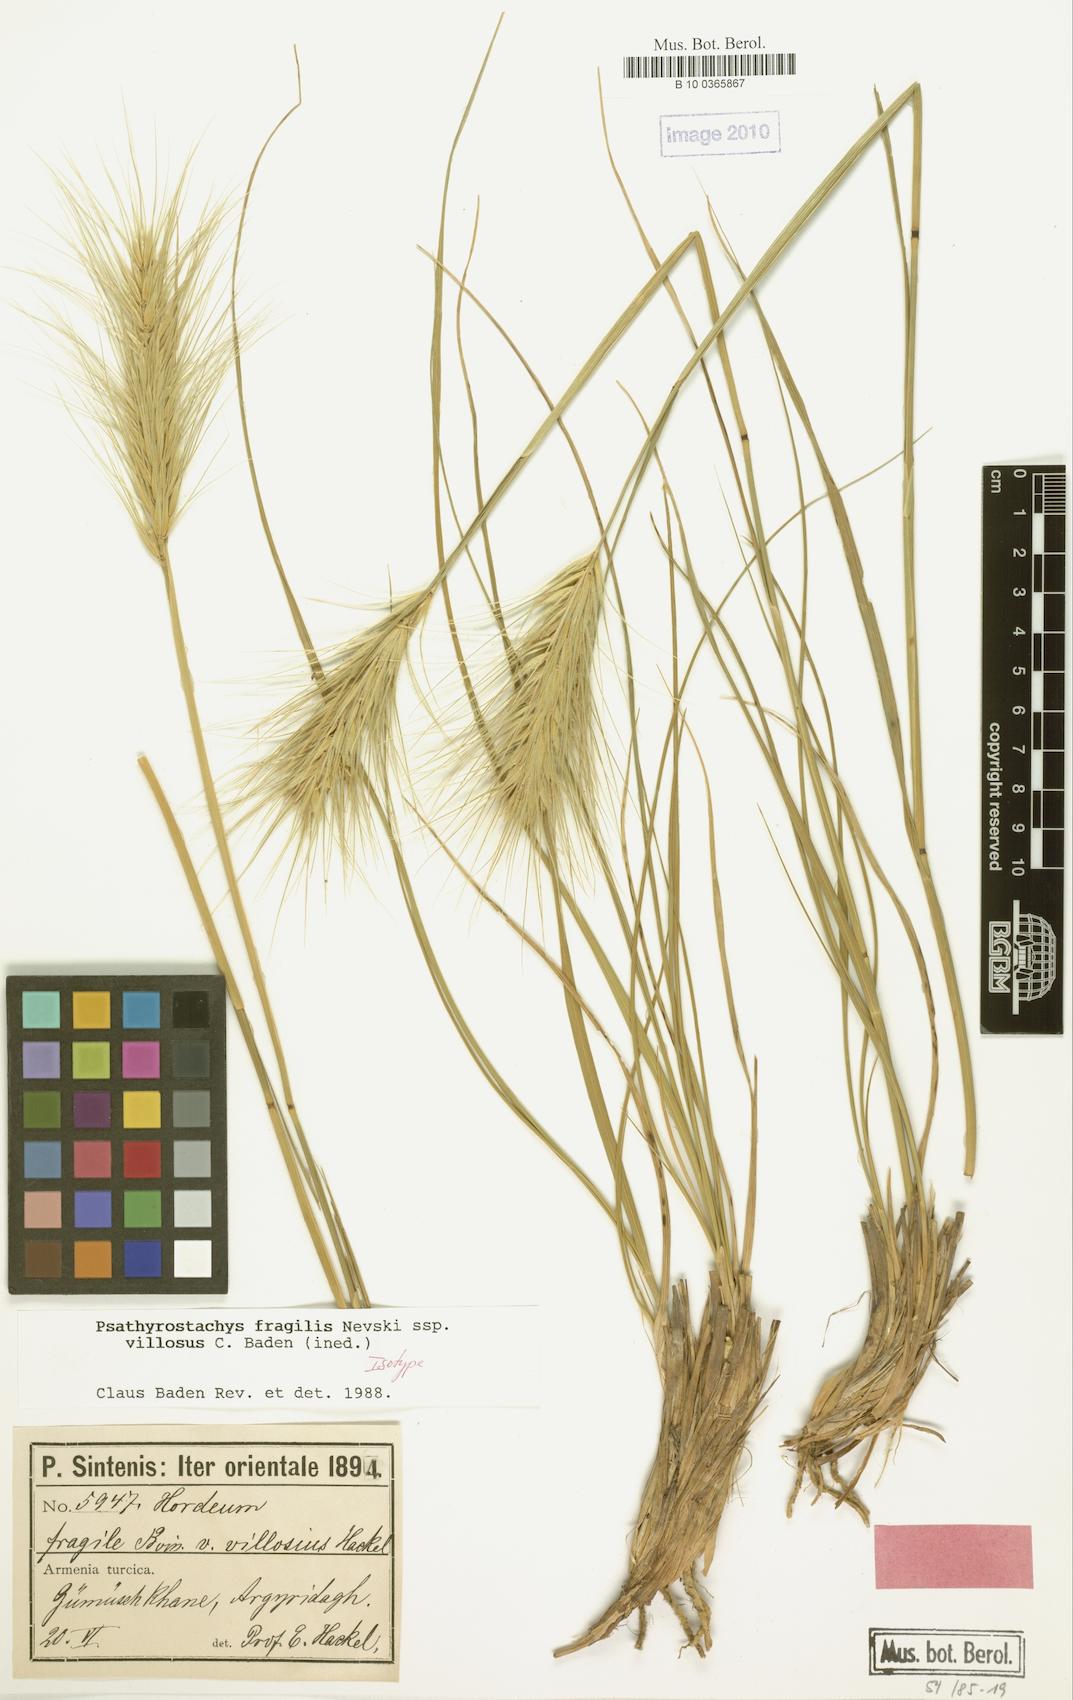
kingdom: Plantae
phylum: Tracheophyta
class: Liliopsida
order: Poales
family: Poaceae
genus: Psathyrostachys
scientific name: Psathyrostachys fragilis
